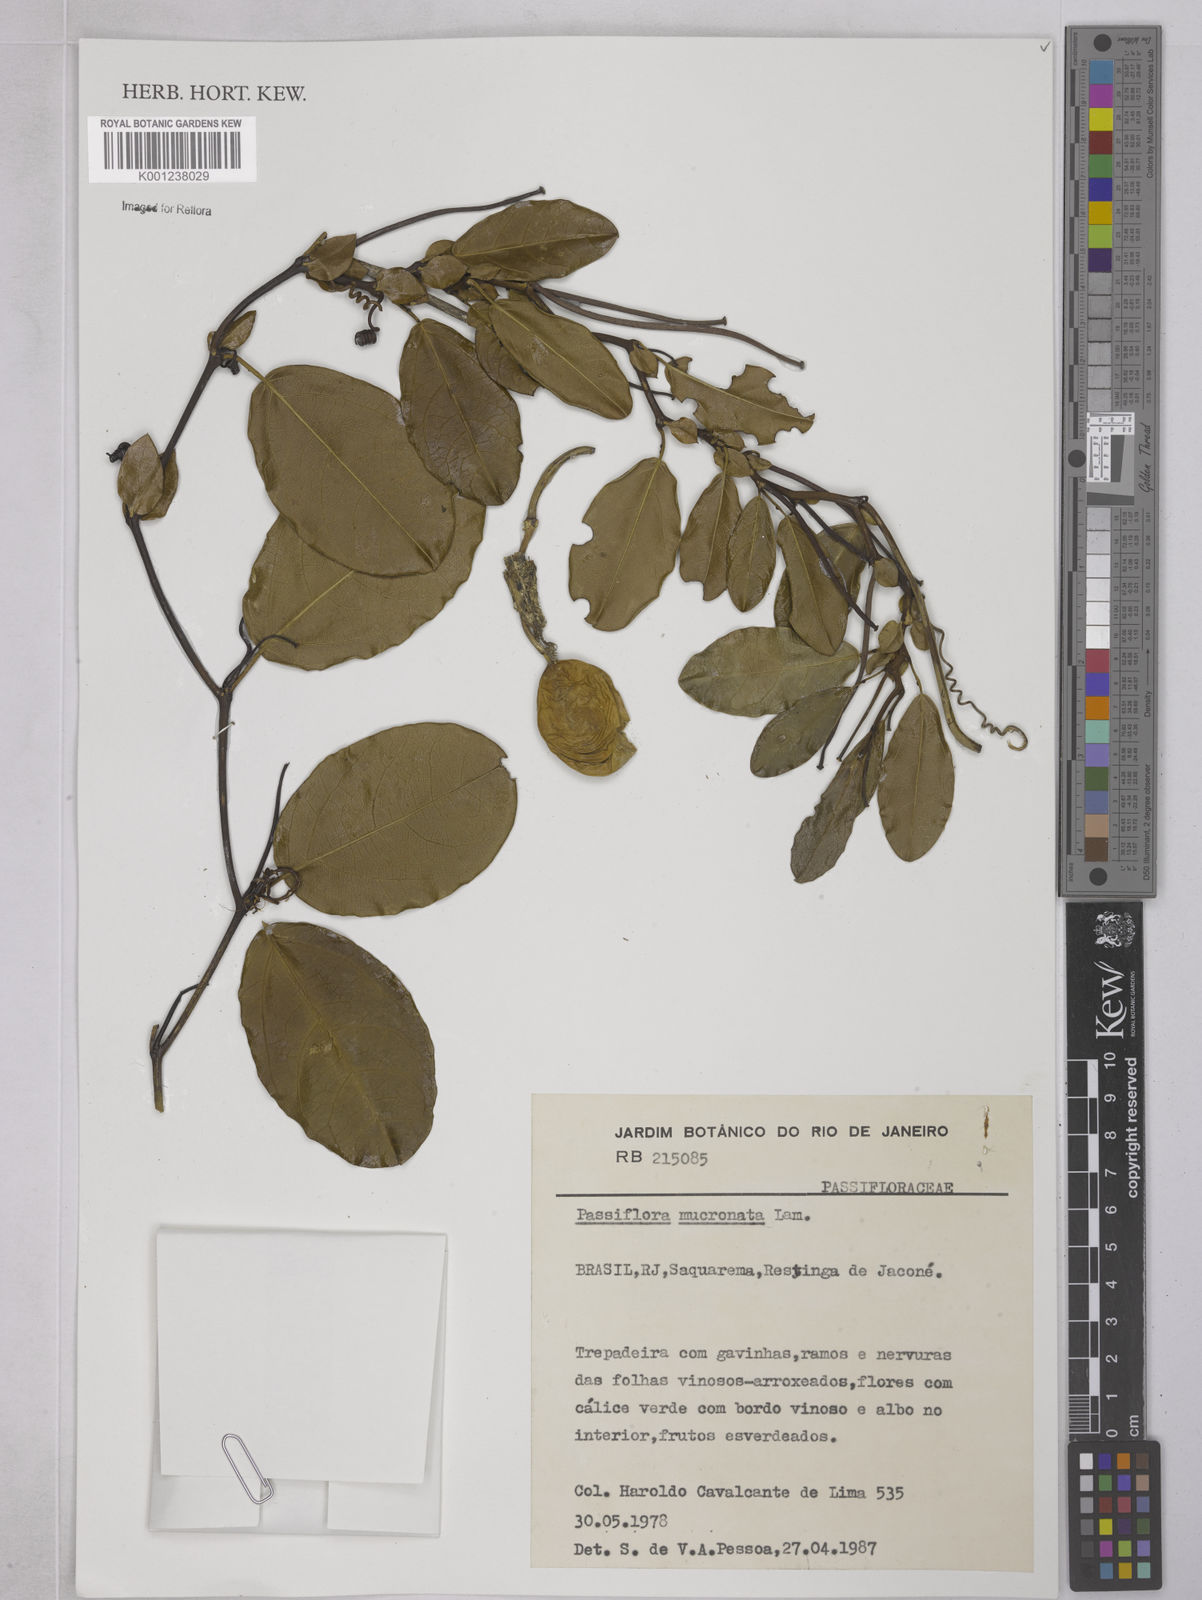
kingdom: Plantae
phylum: Tracheophyta
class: Magnoliopsida
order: Malpighiales
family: Passifloraceae
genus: Passiflora
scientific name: Passiflora mucronata
